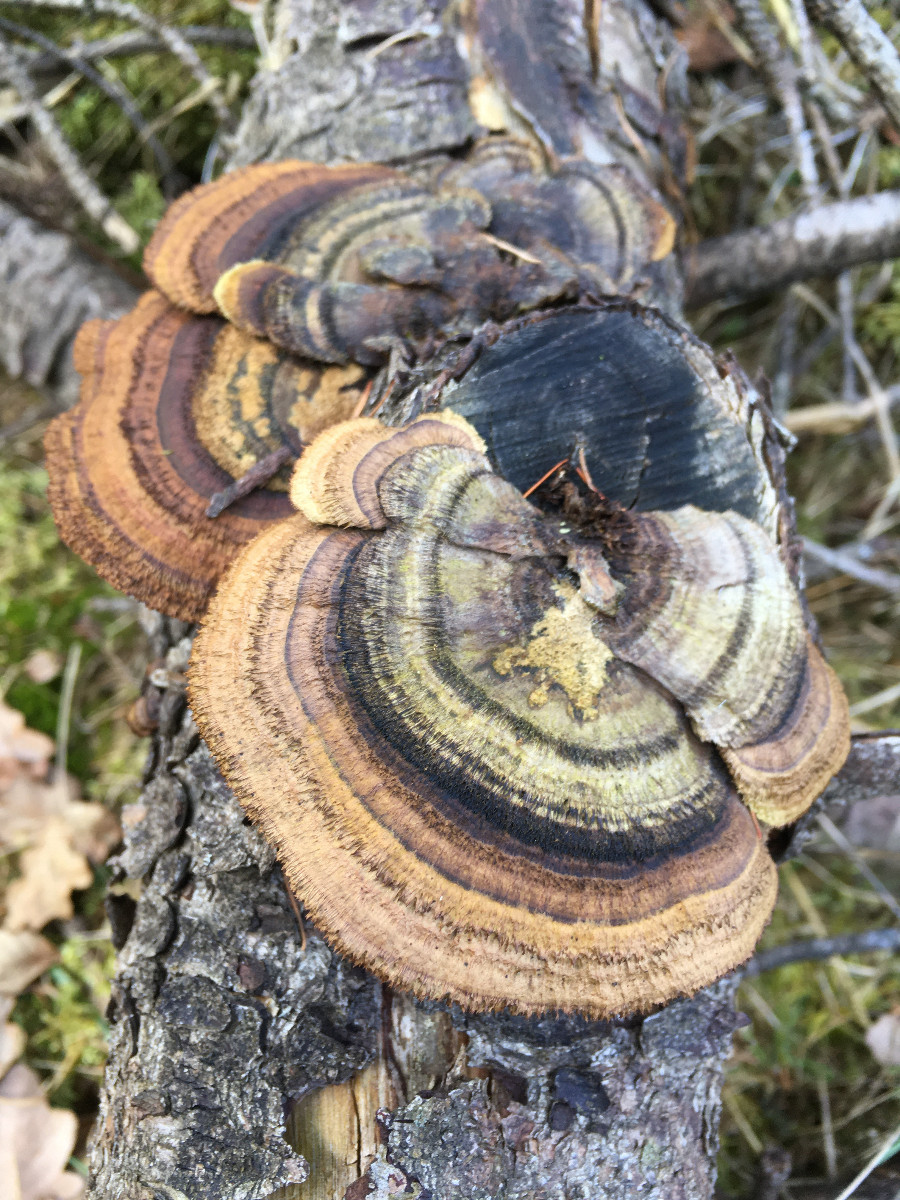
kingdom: Fungi
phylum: Basidiomycota
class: Agaricomycetes
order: Gloeophyllales
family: Gloeophyllaceae
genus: Gloeophyllum
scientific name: Gloeophyllum sepiarium
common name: fyrre-korkhat
